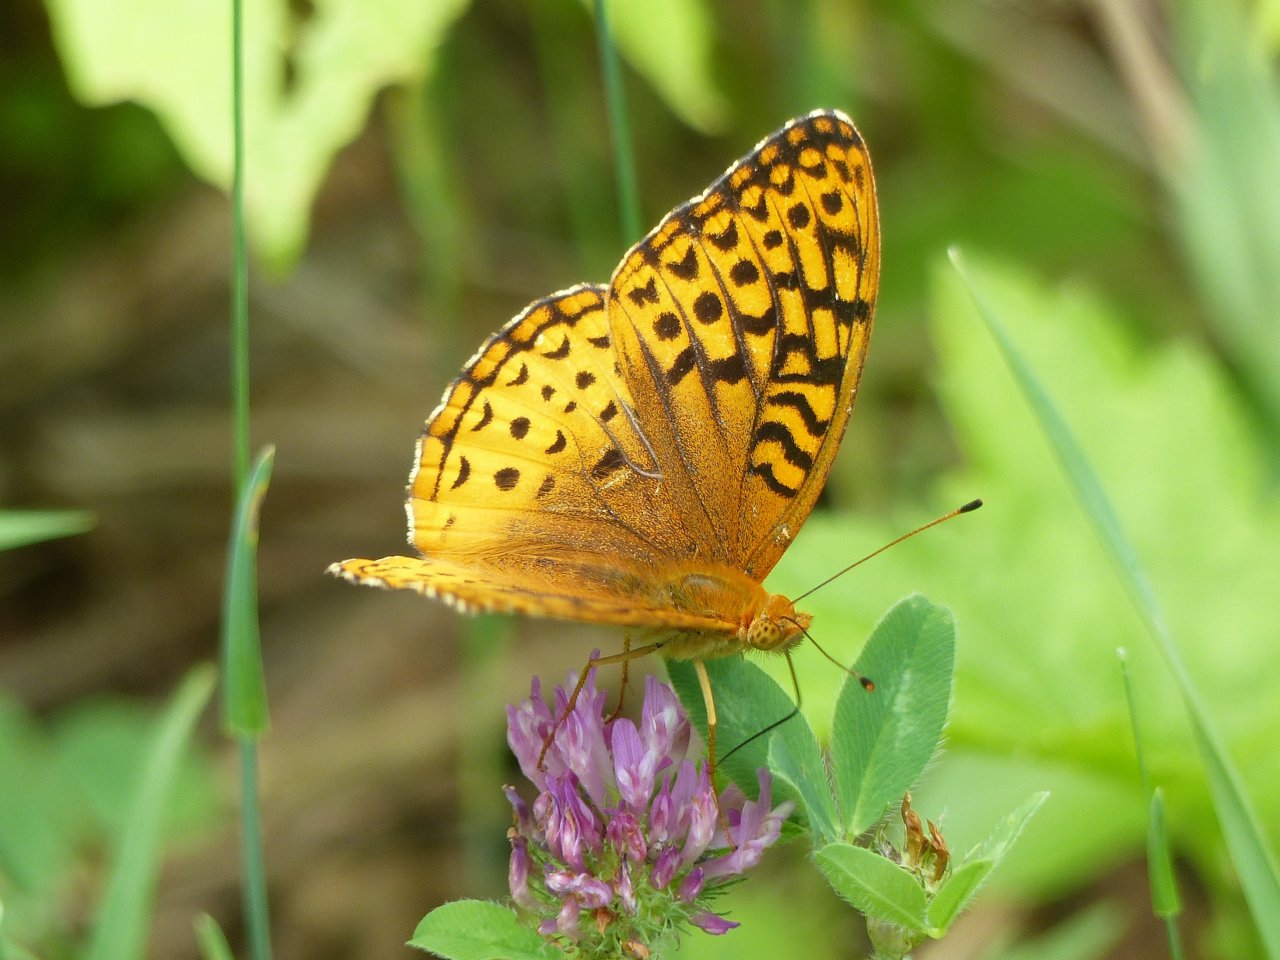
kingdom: Animalia
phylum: Arthropoda
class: Insecta
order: Lepidoptera
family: Nymphalidae
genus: Speyeria
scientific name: Speyeria cybele
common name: Great Spangled Fritillary
